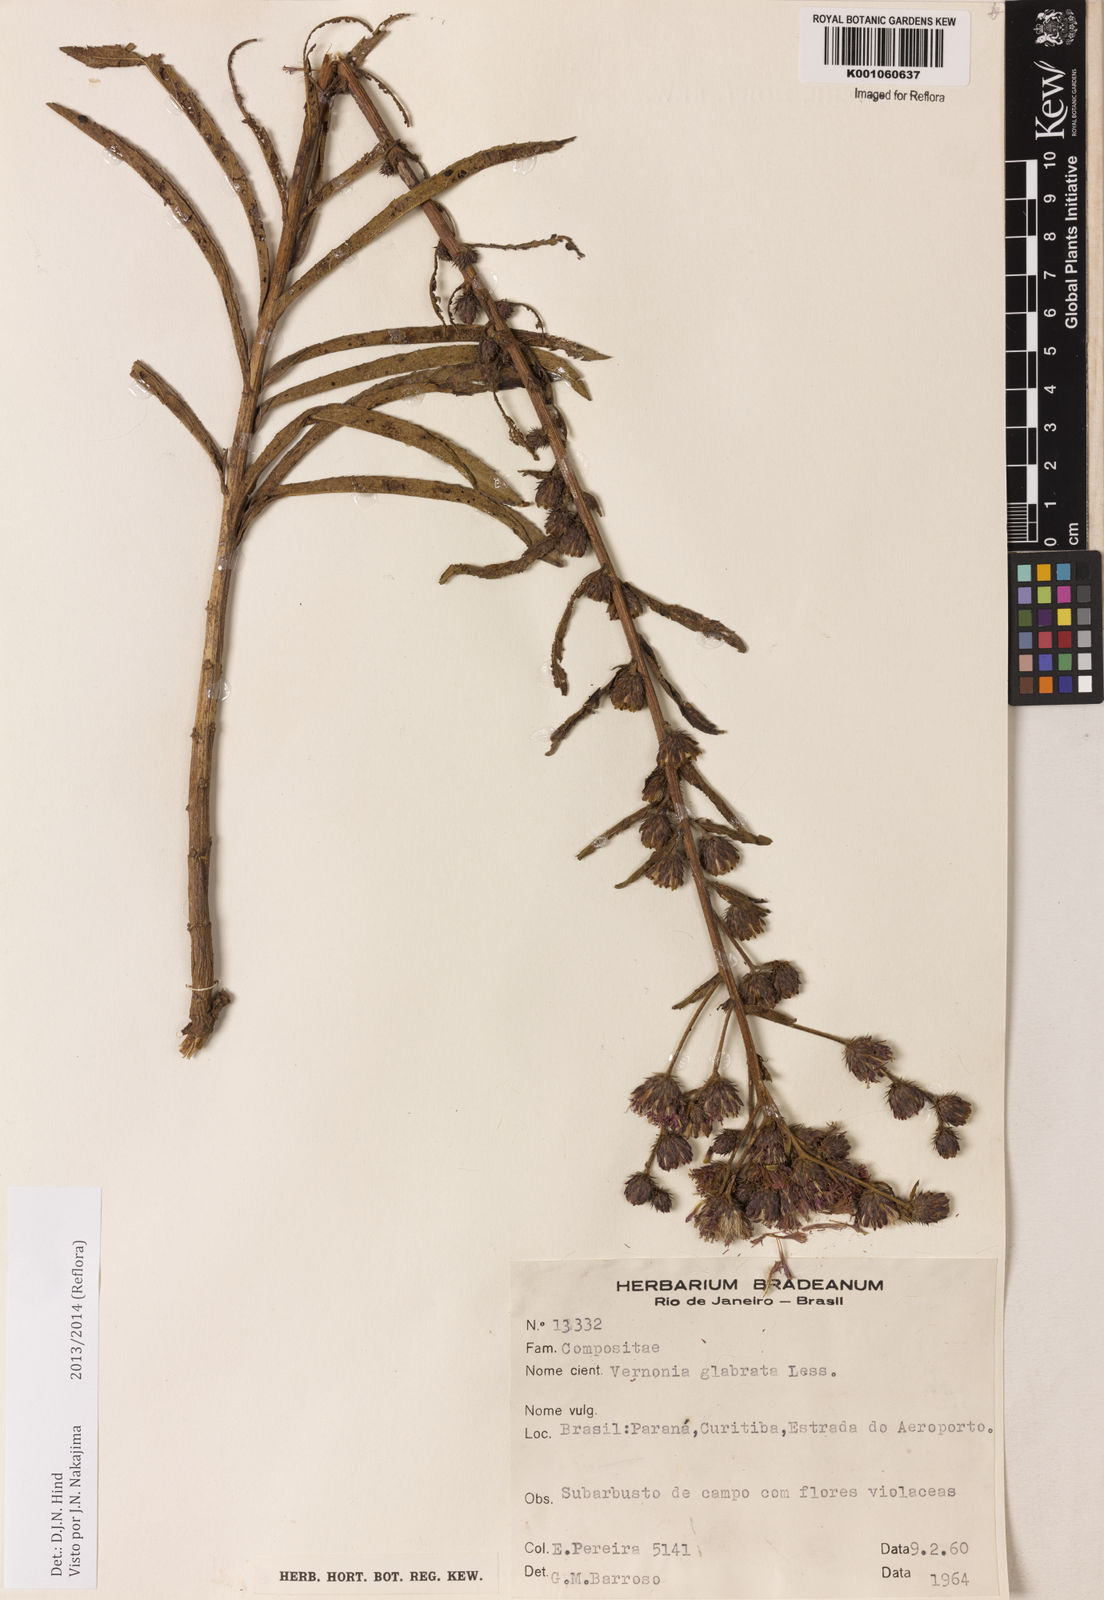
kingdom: Plantae
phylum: Tracheophyta
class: Magnoliopsida
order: Asterales
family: Asteraceae
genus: Lessingianthus
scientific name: Lessingianthus glabratus
